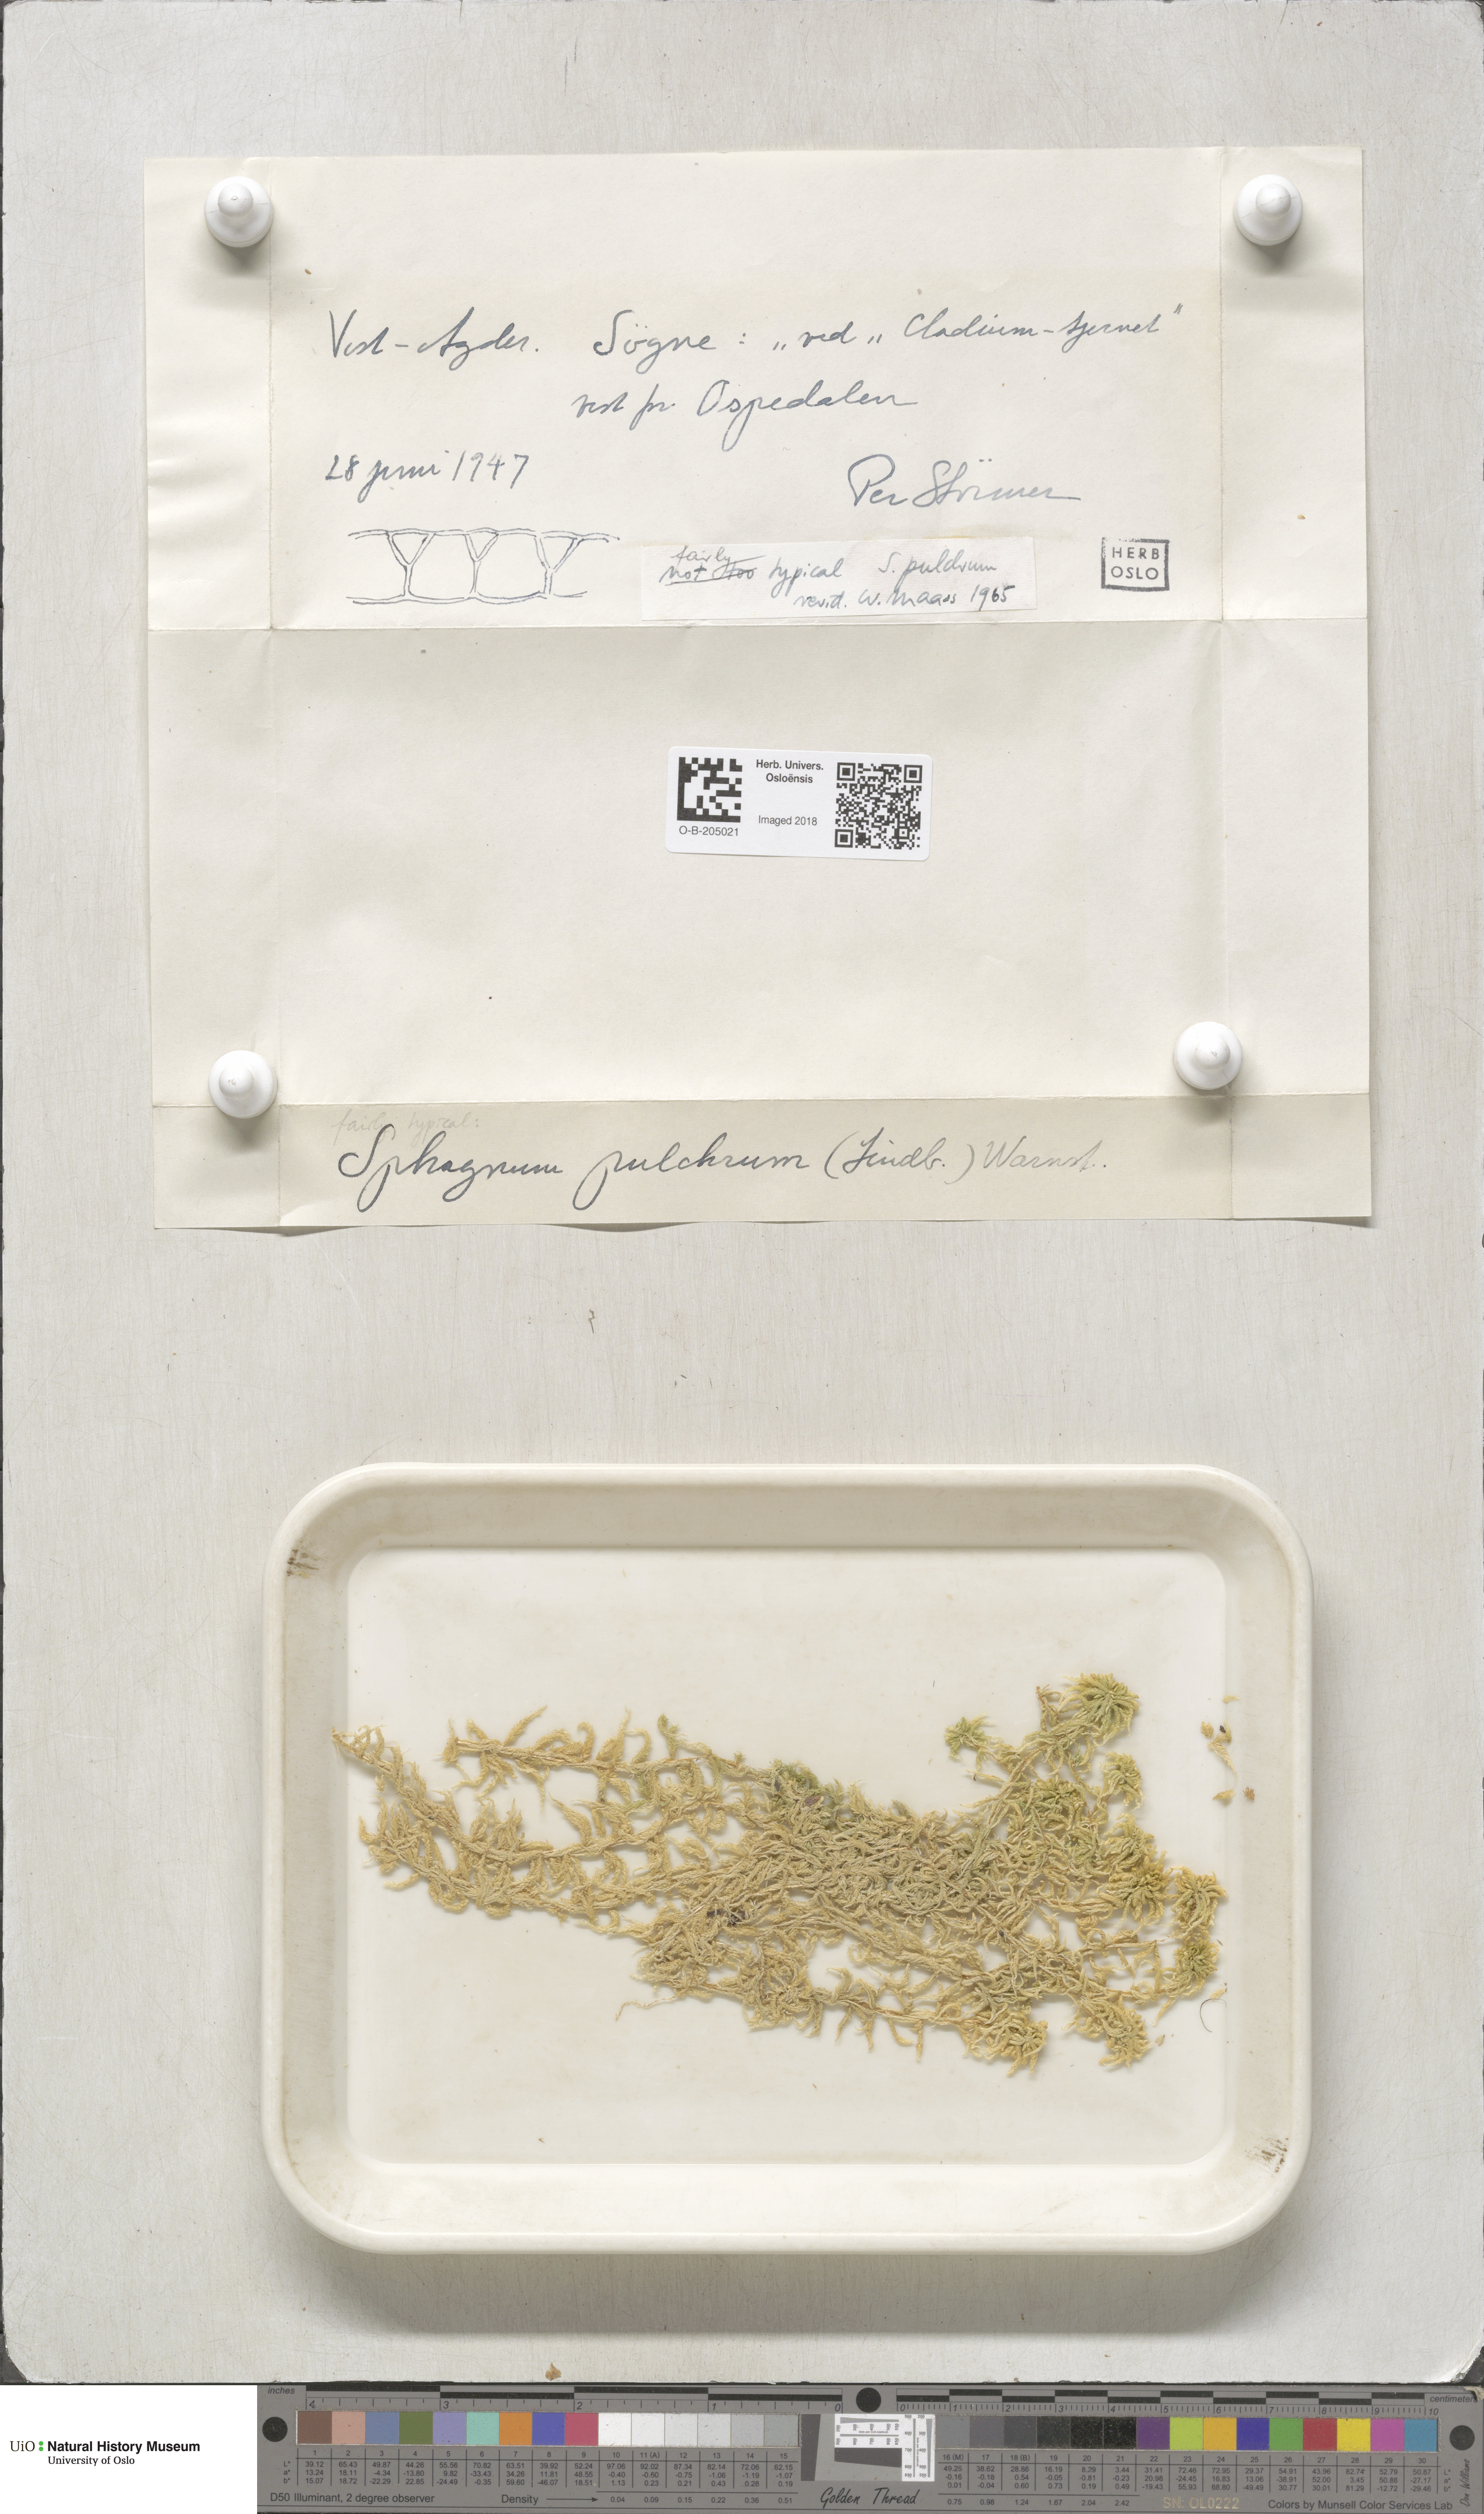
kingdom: Plantae
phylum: Bryophyta
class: Sphagnopsida
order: Sphagnales
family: Sphagnaceae
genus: Sphagnum
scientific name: Sphagnum pulchrum
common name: Beautiful peat moss
